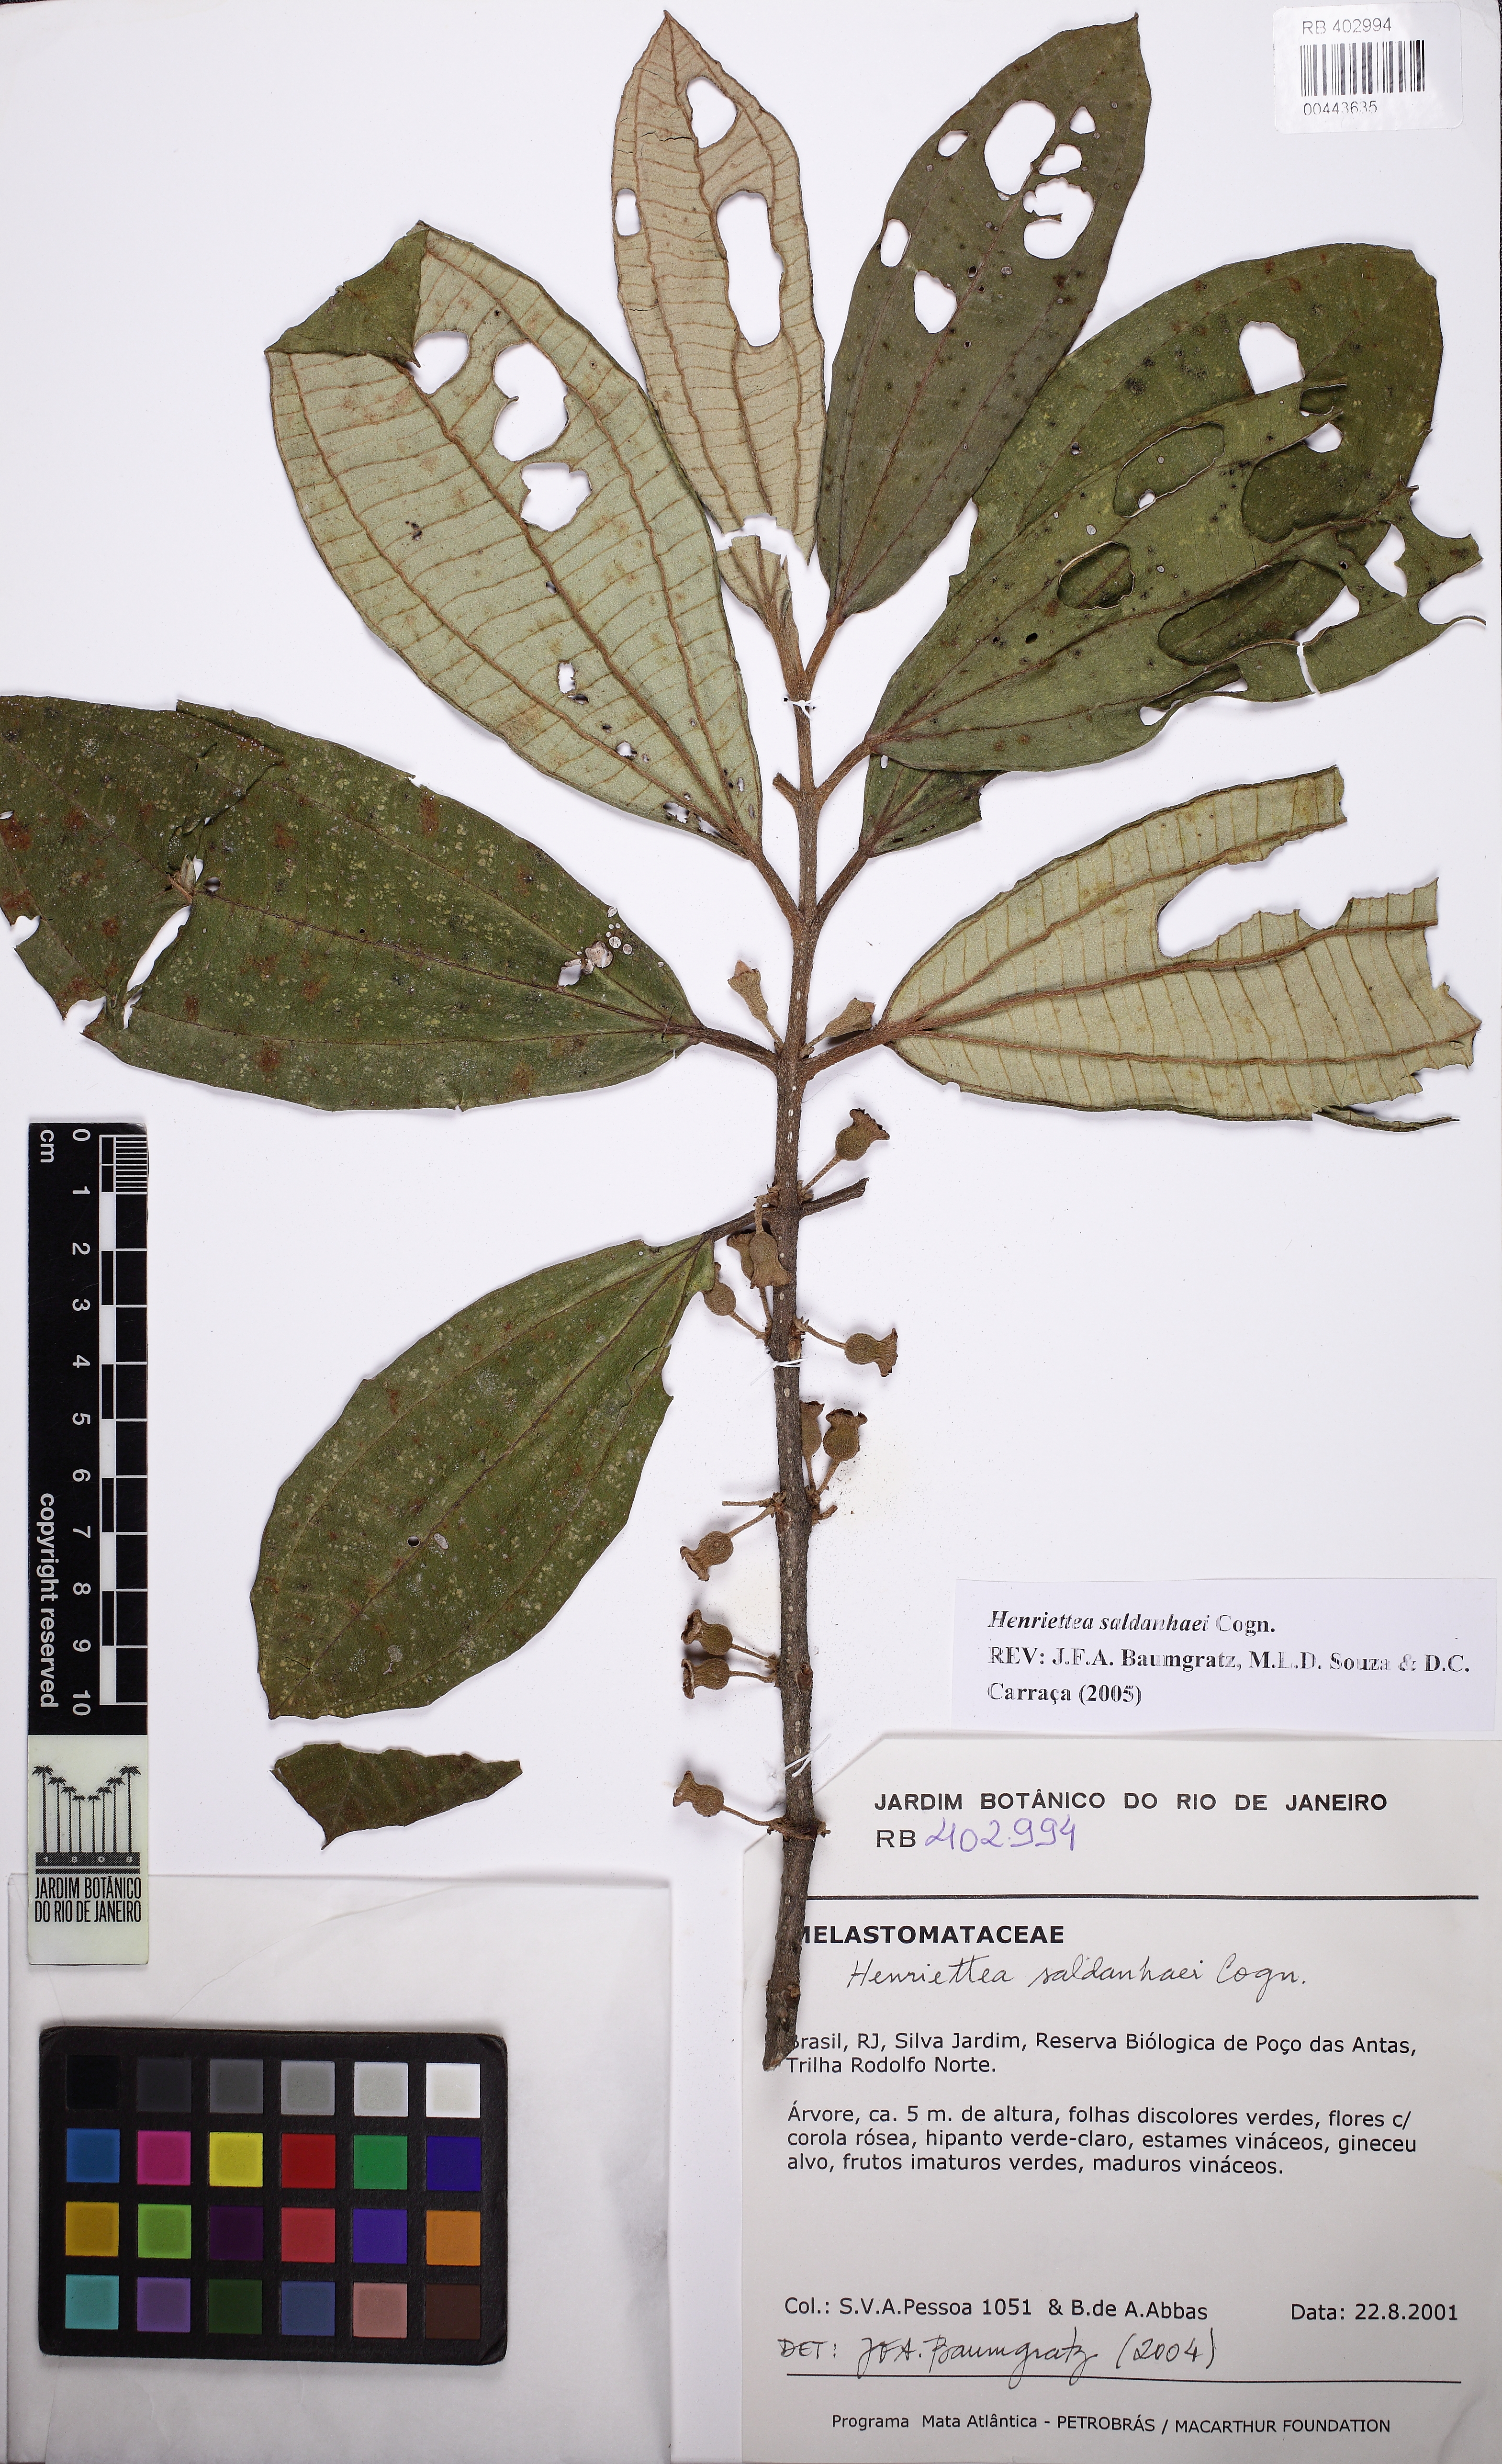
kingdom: Plantae
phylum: Tracheophyta
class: Magnoliopsida
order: Myrtales
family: Melastomataceae
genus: Henriettea
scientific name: Henriettea saldanhaei
